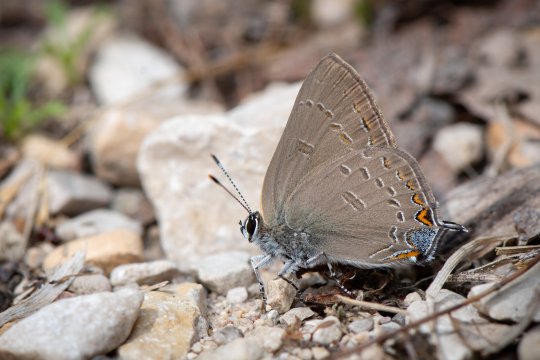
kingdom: Animalia
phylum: Arthropoda
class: Insecta
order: Lepidoptera
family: Lycaenidae
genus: Satyrium
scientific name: Satyrium edwardsii
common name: Edwards' Hairstreak
